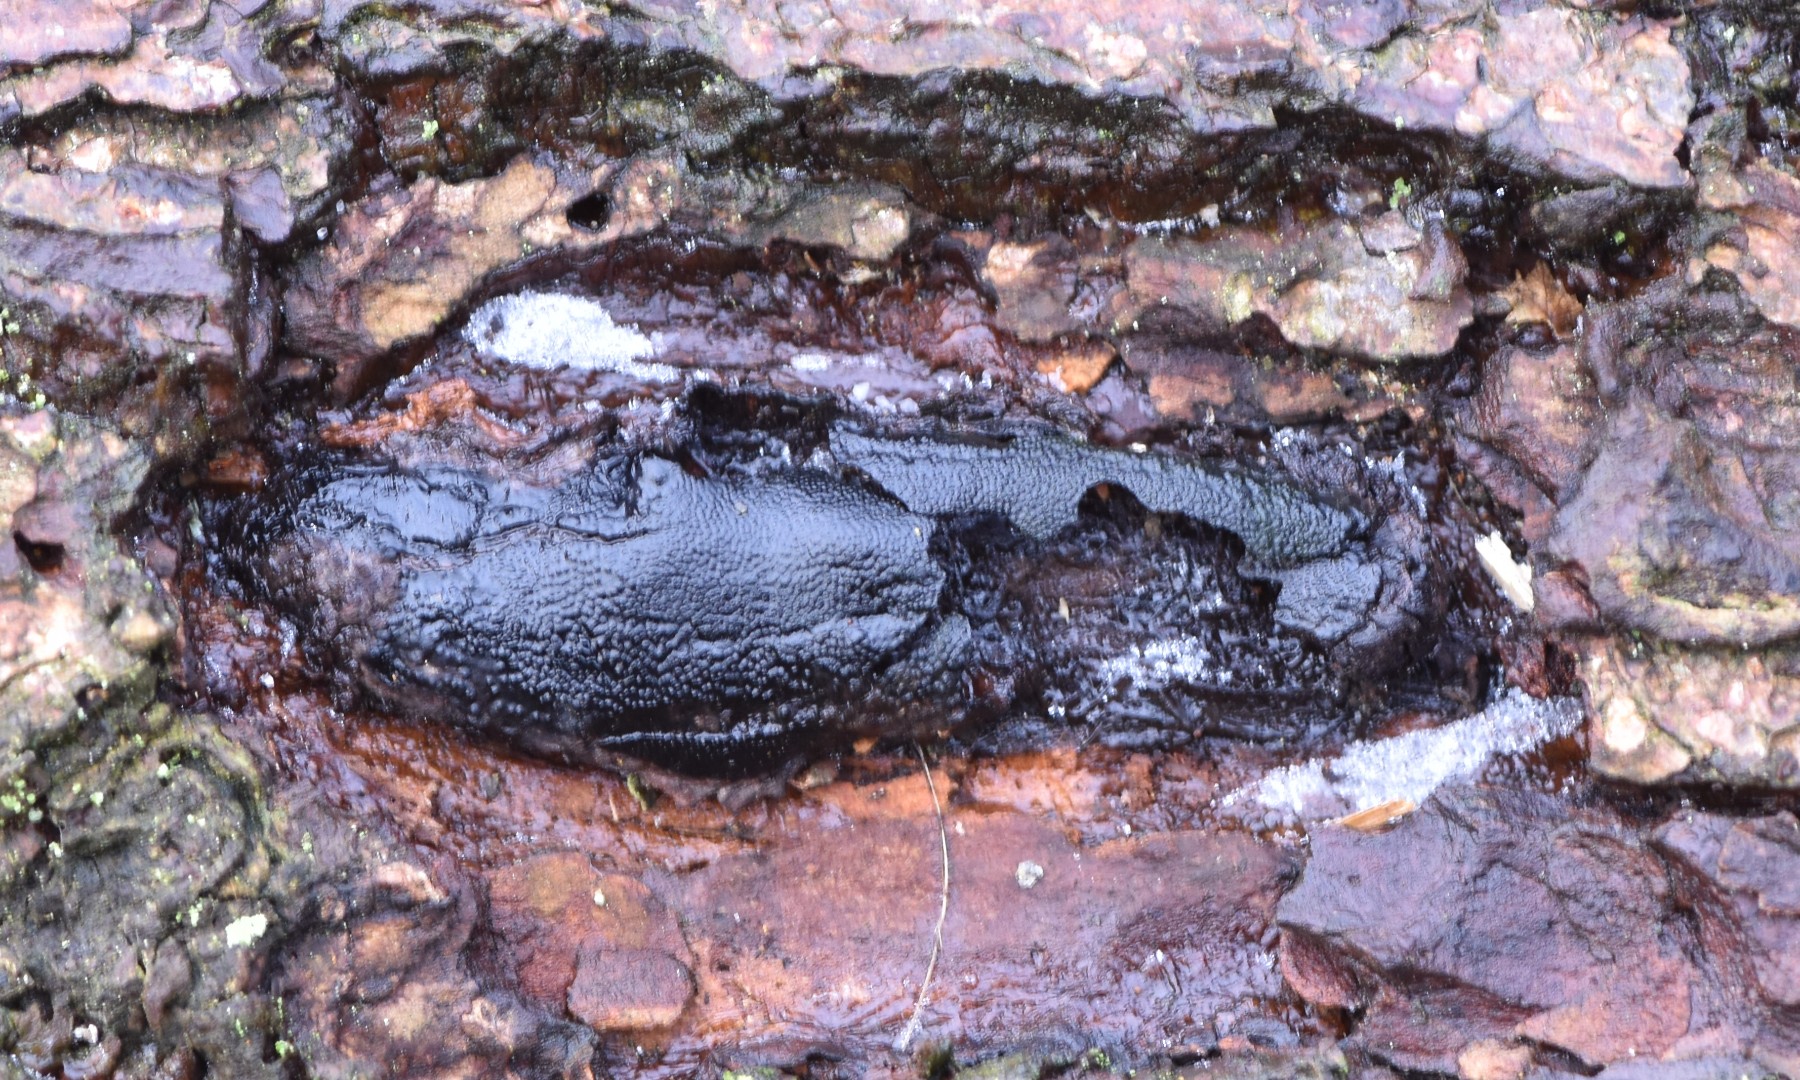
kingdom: Fungi
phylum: Ascomycota
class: Sordariomycetes
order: Boliniales
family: Boliniaceae
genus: Camarops
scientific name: Camarops polysperma
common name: elle-kulsnegl
